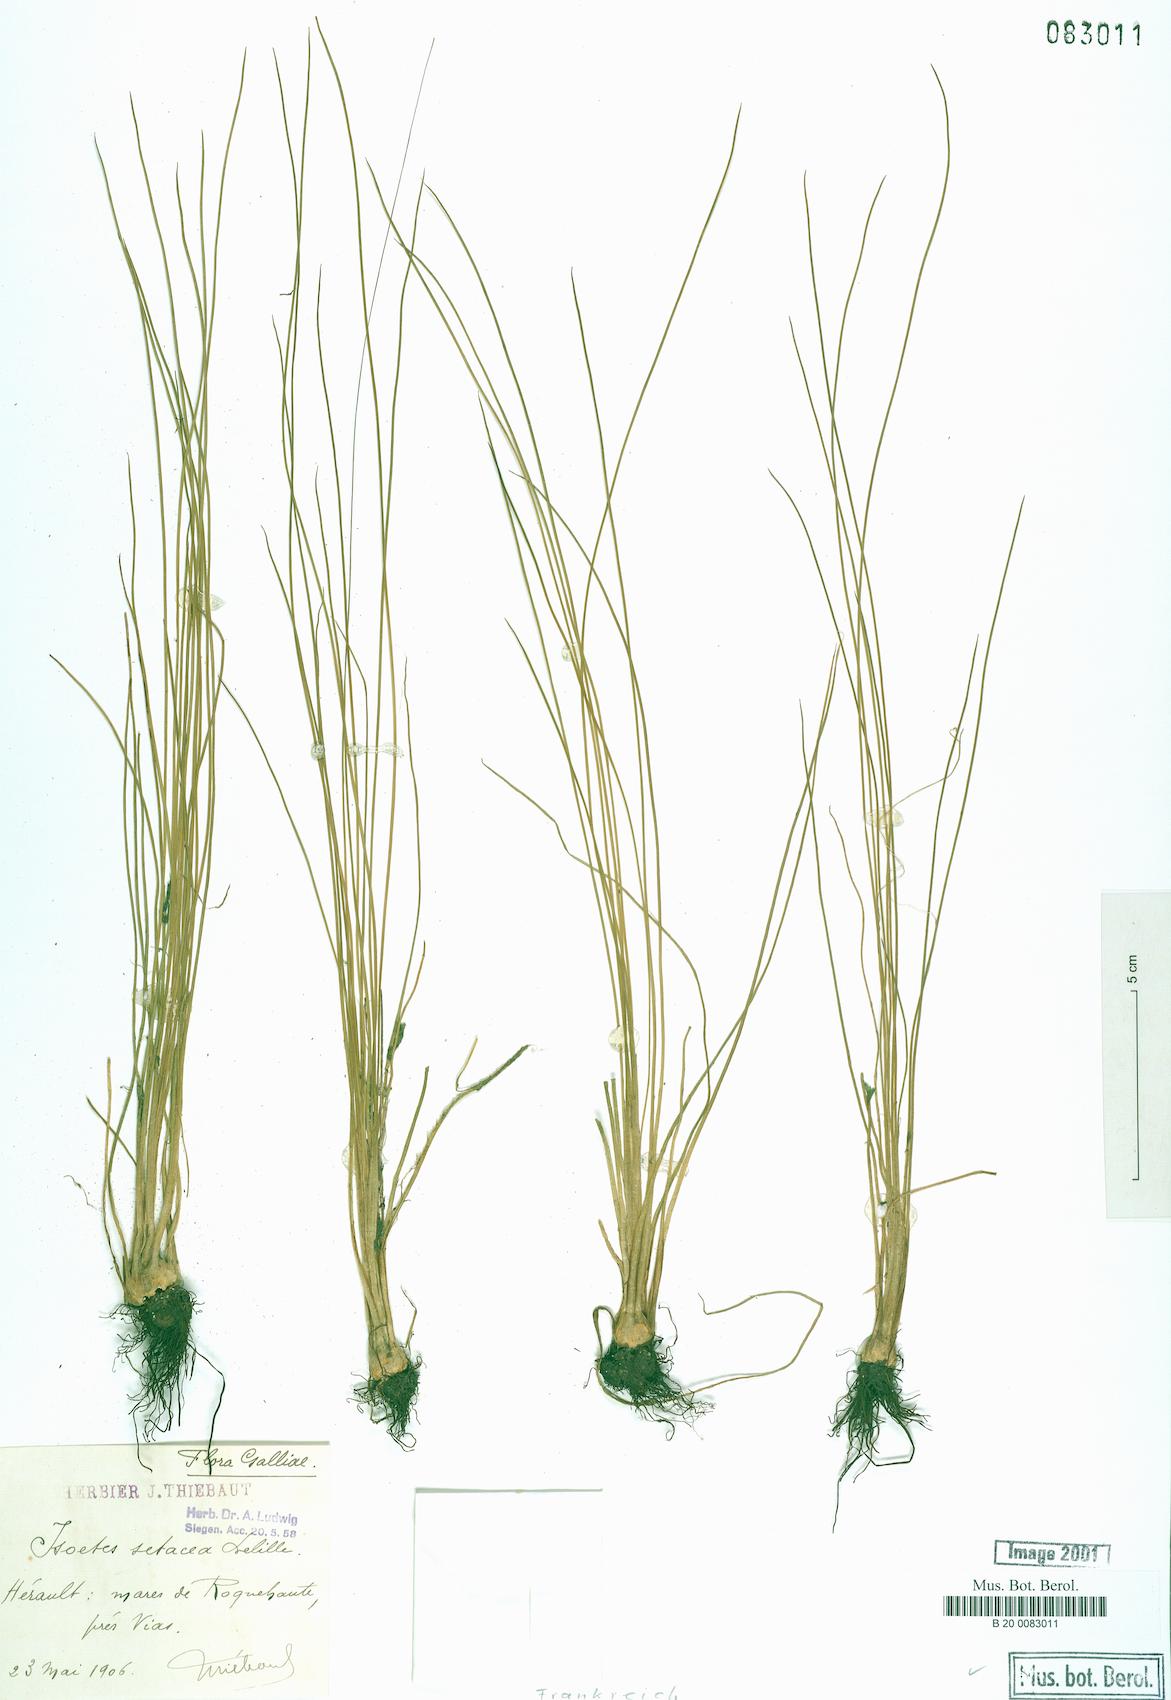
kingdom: Plantae
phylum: Tracheophyta
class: Lycopodiopsida
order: Isoetales
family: Isoetaceae
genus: Isoetes
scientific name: Isoetes lacustris
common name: Common quillwort
